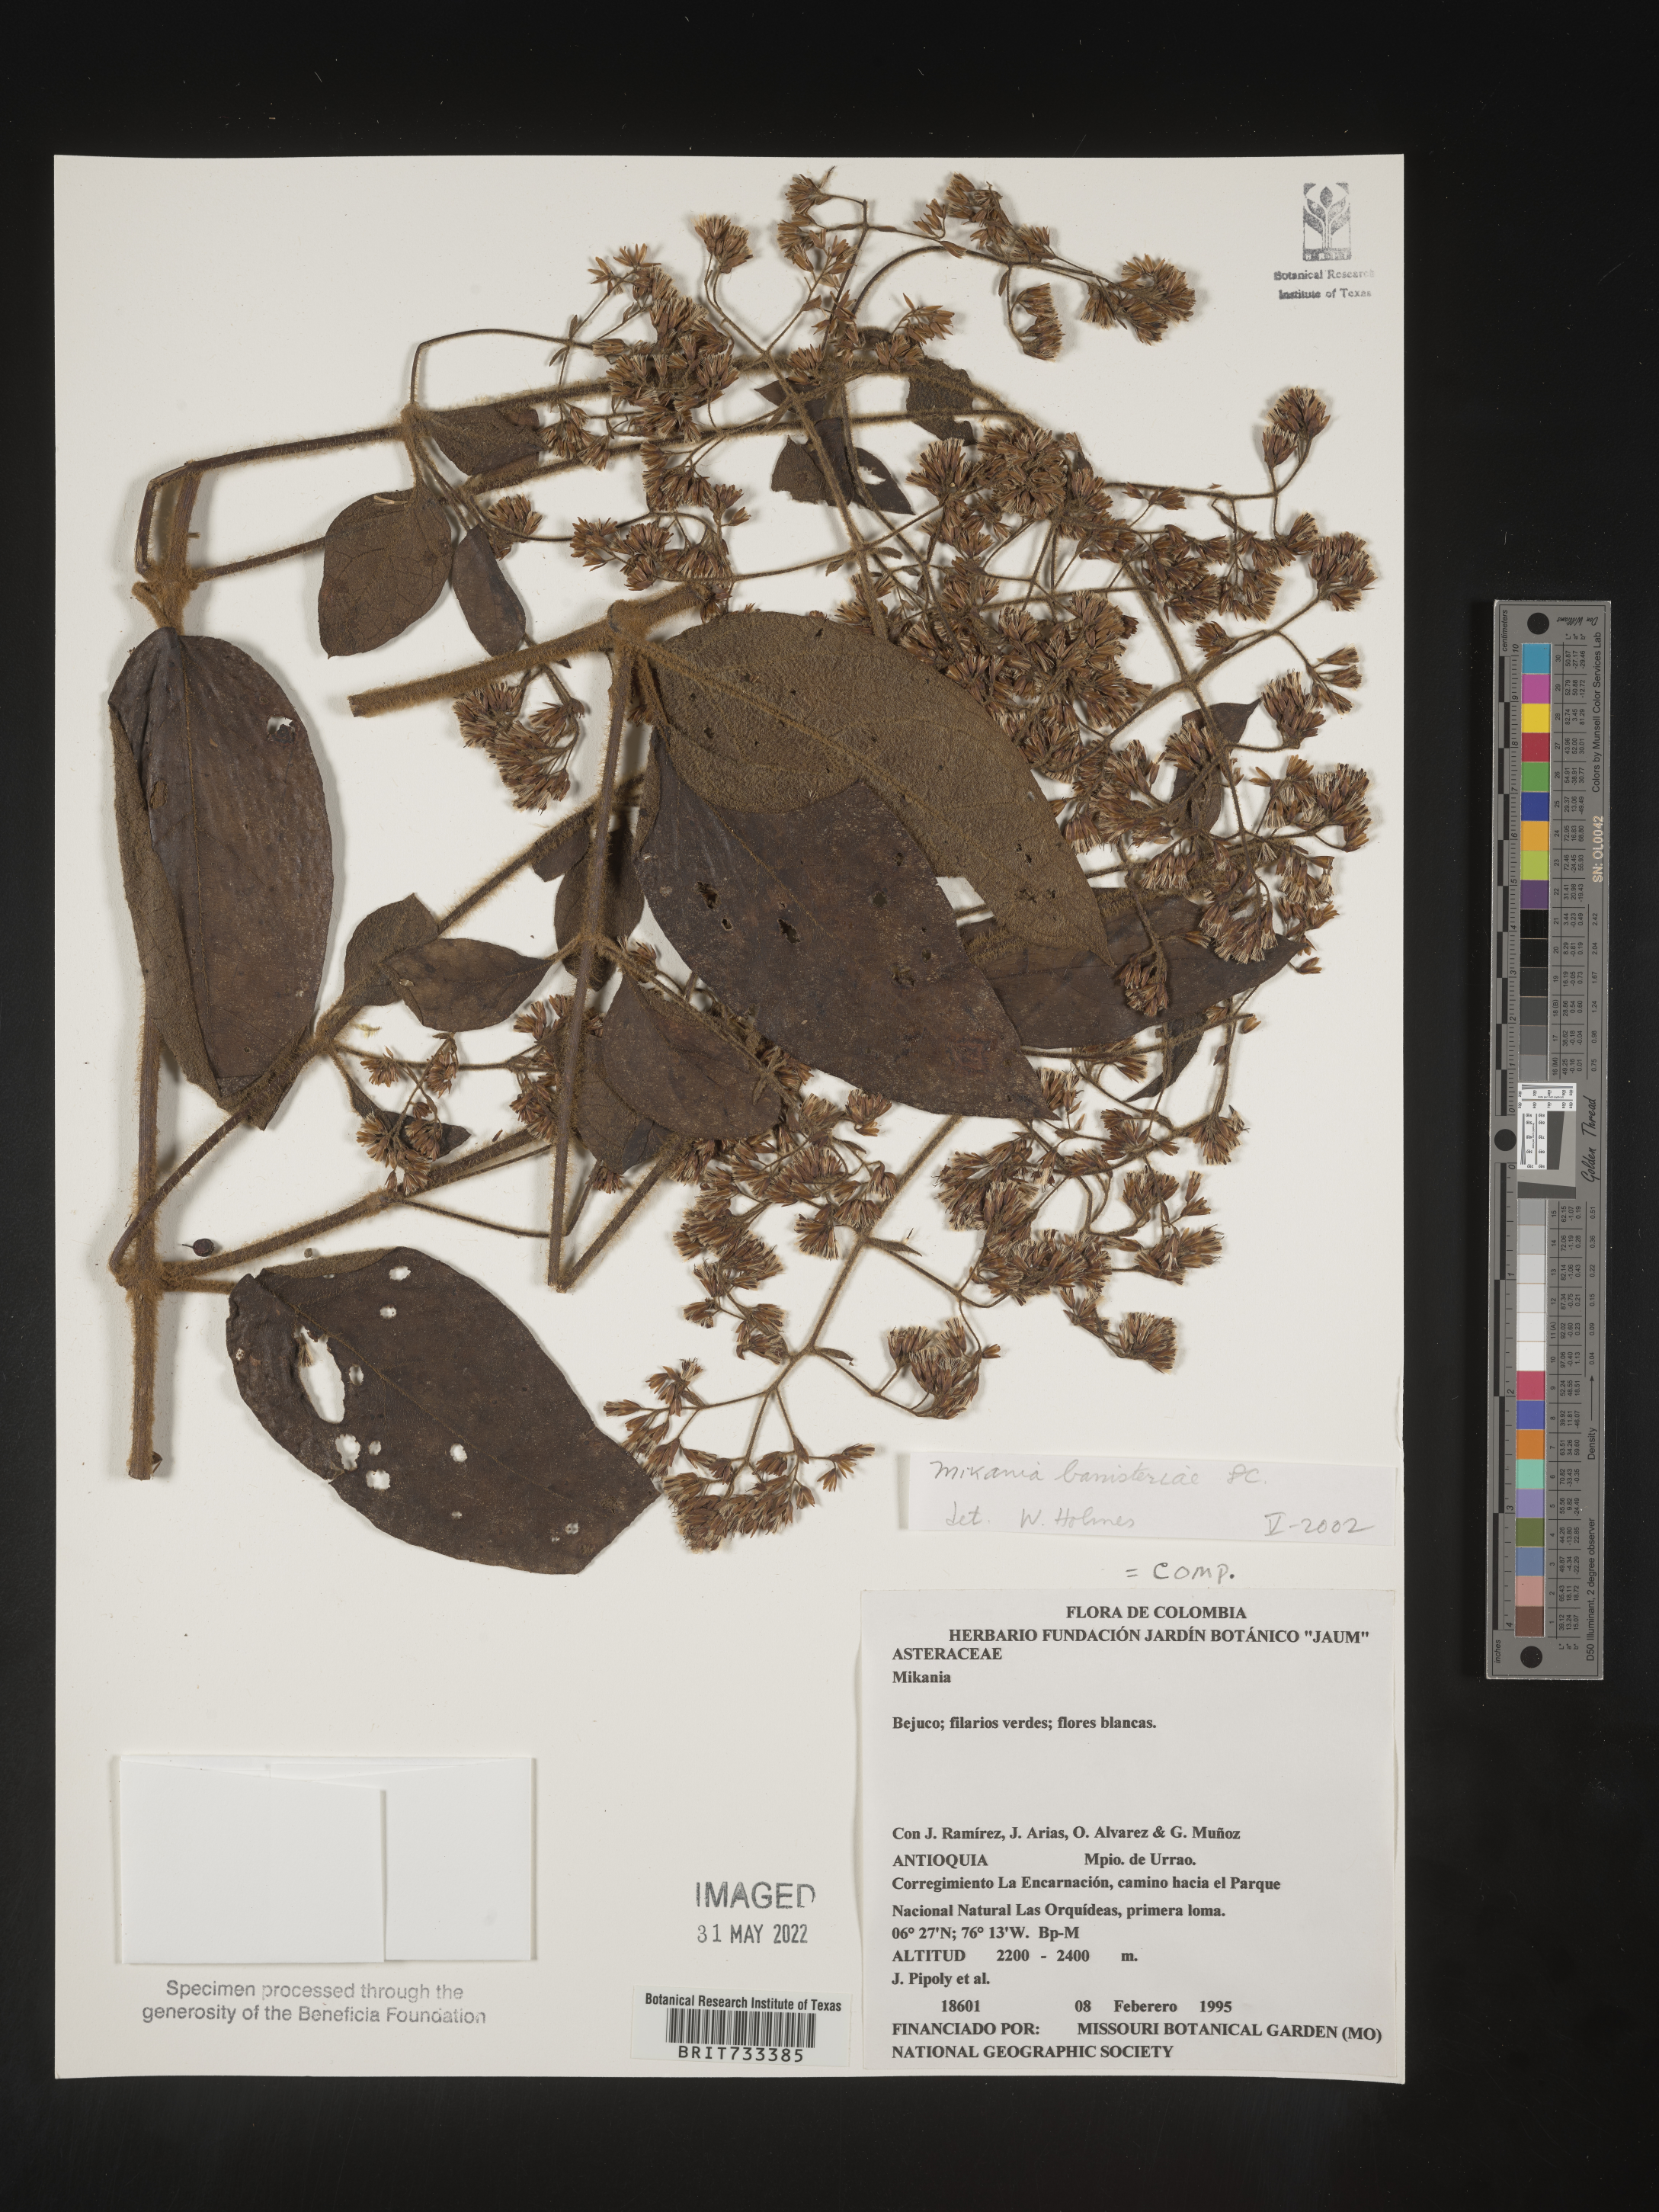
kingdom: Plantae
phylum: Tracheophyta
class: Magnoliopsida
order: Asterales
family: Asteraceae
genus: Mikania
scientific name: Mikania
